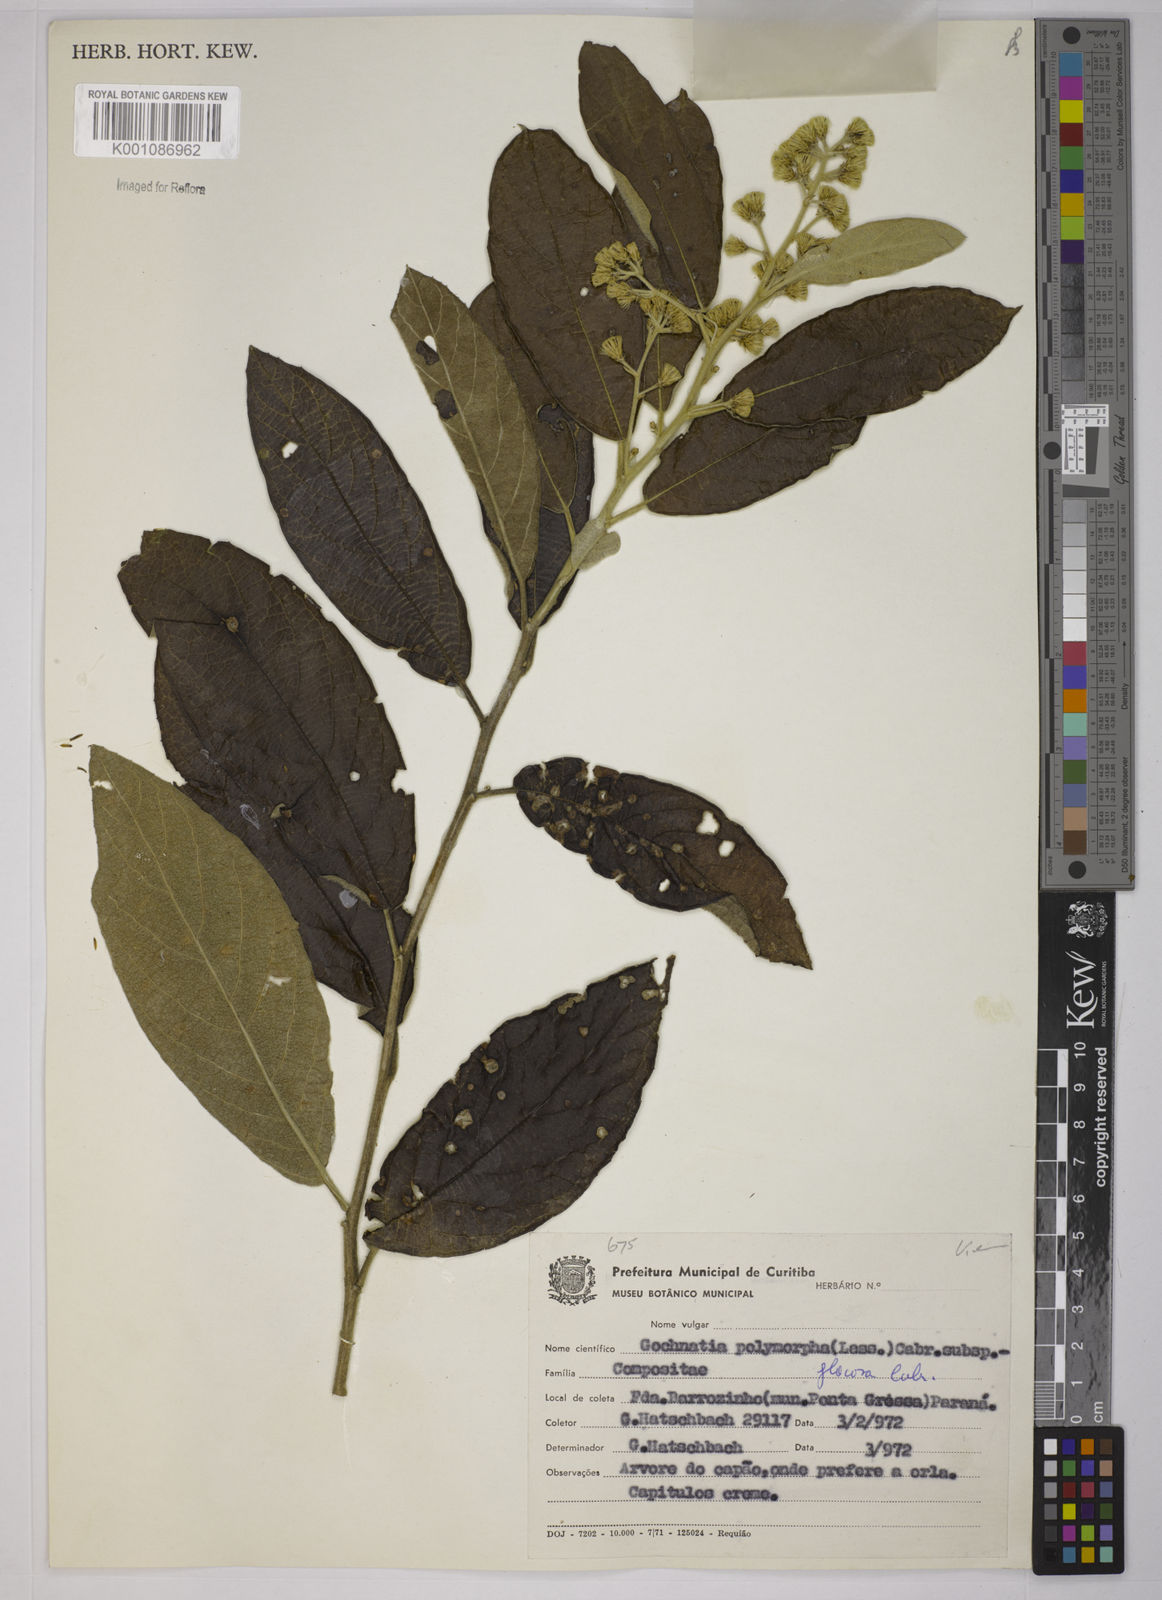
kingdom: Plantae
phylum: Tracheophyta
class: Magnoliopsida
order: Asterales
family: Asteraceae
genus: Moquiniastrum
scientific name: Moquiniastrum polymorphum
